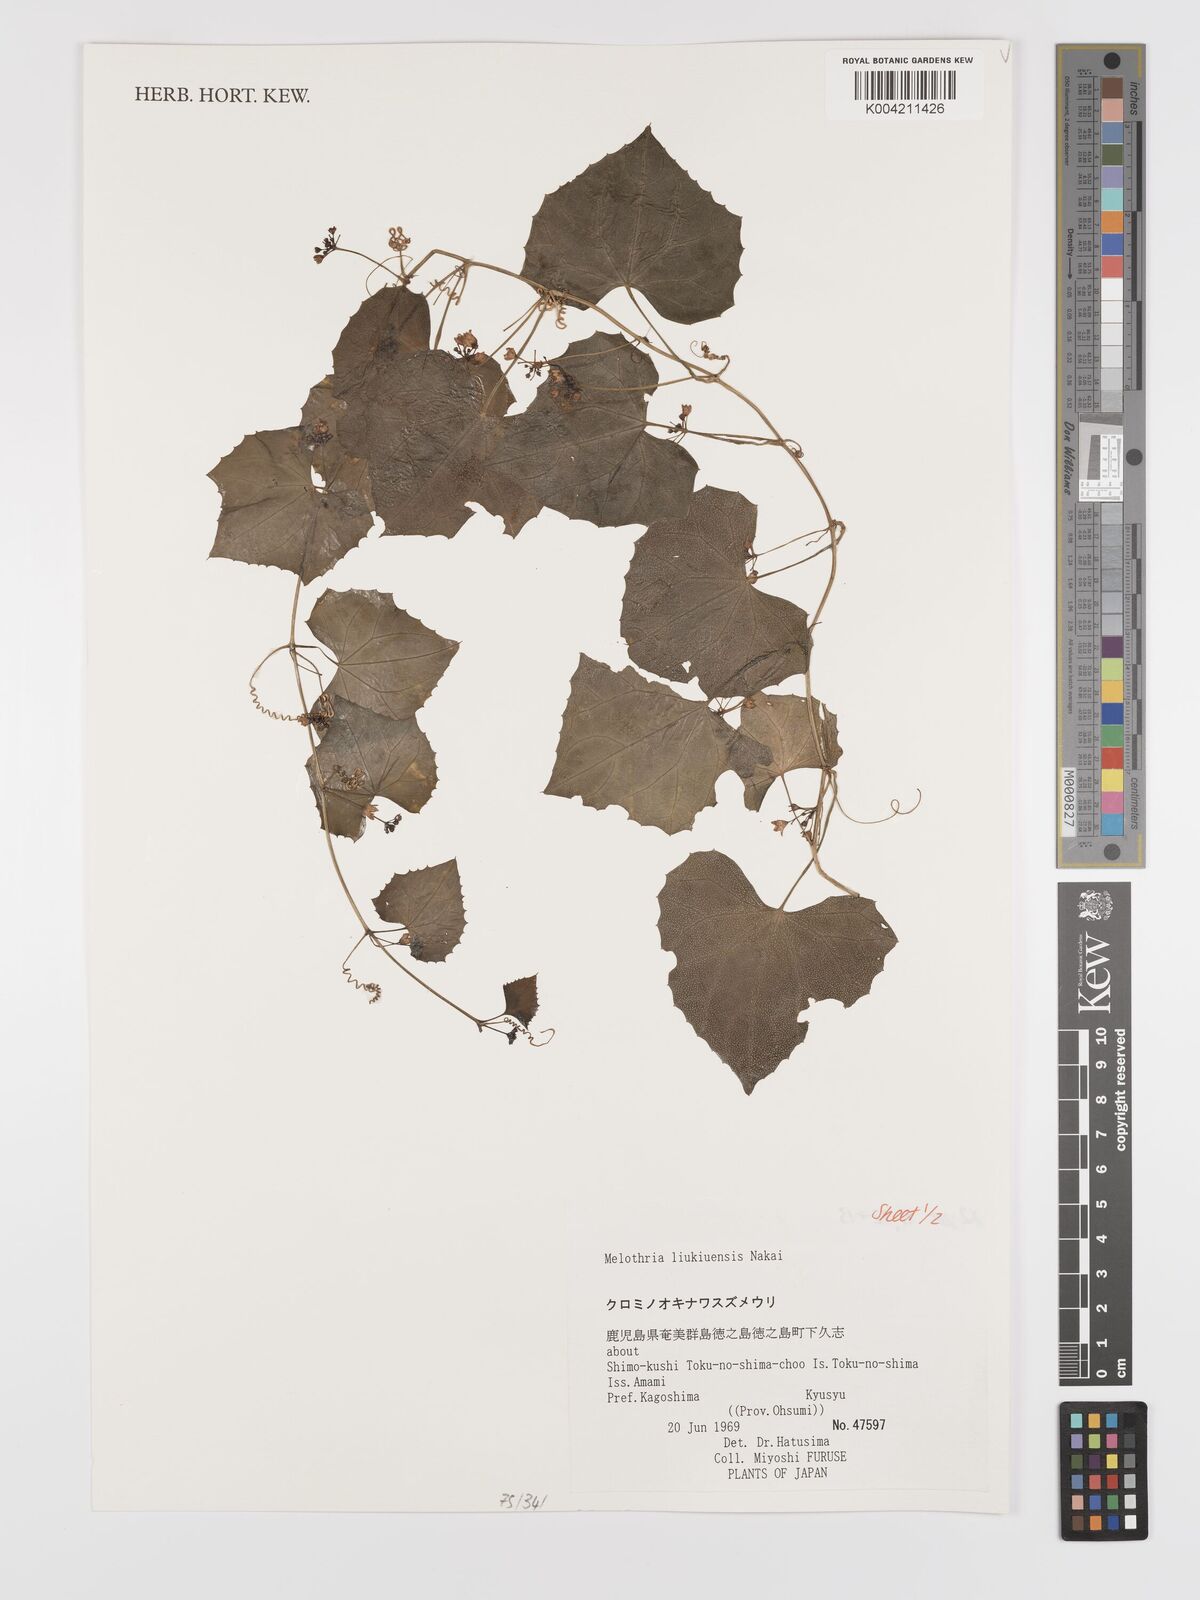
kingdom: Plantae
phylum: Tracheophyta
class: Magnoliopsida
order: Cucurbitales
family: Cucurbitaceae
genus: Zehneria
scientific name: Zehneria liukiuensis
